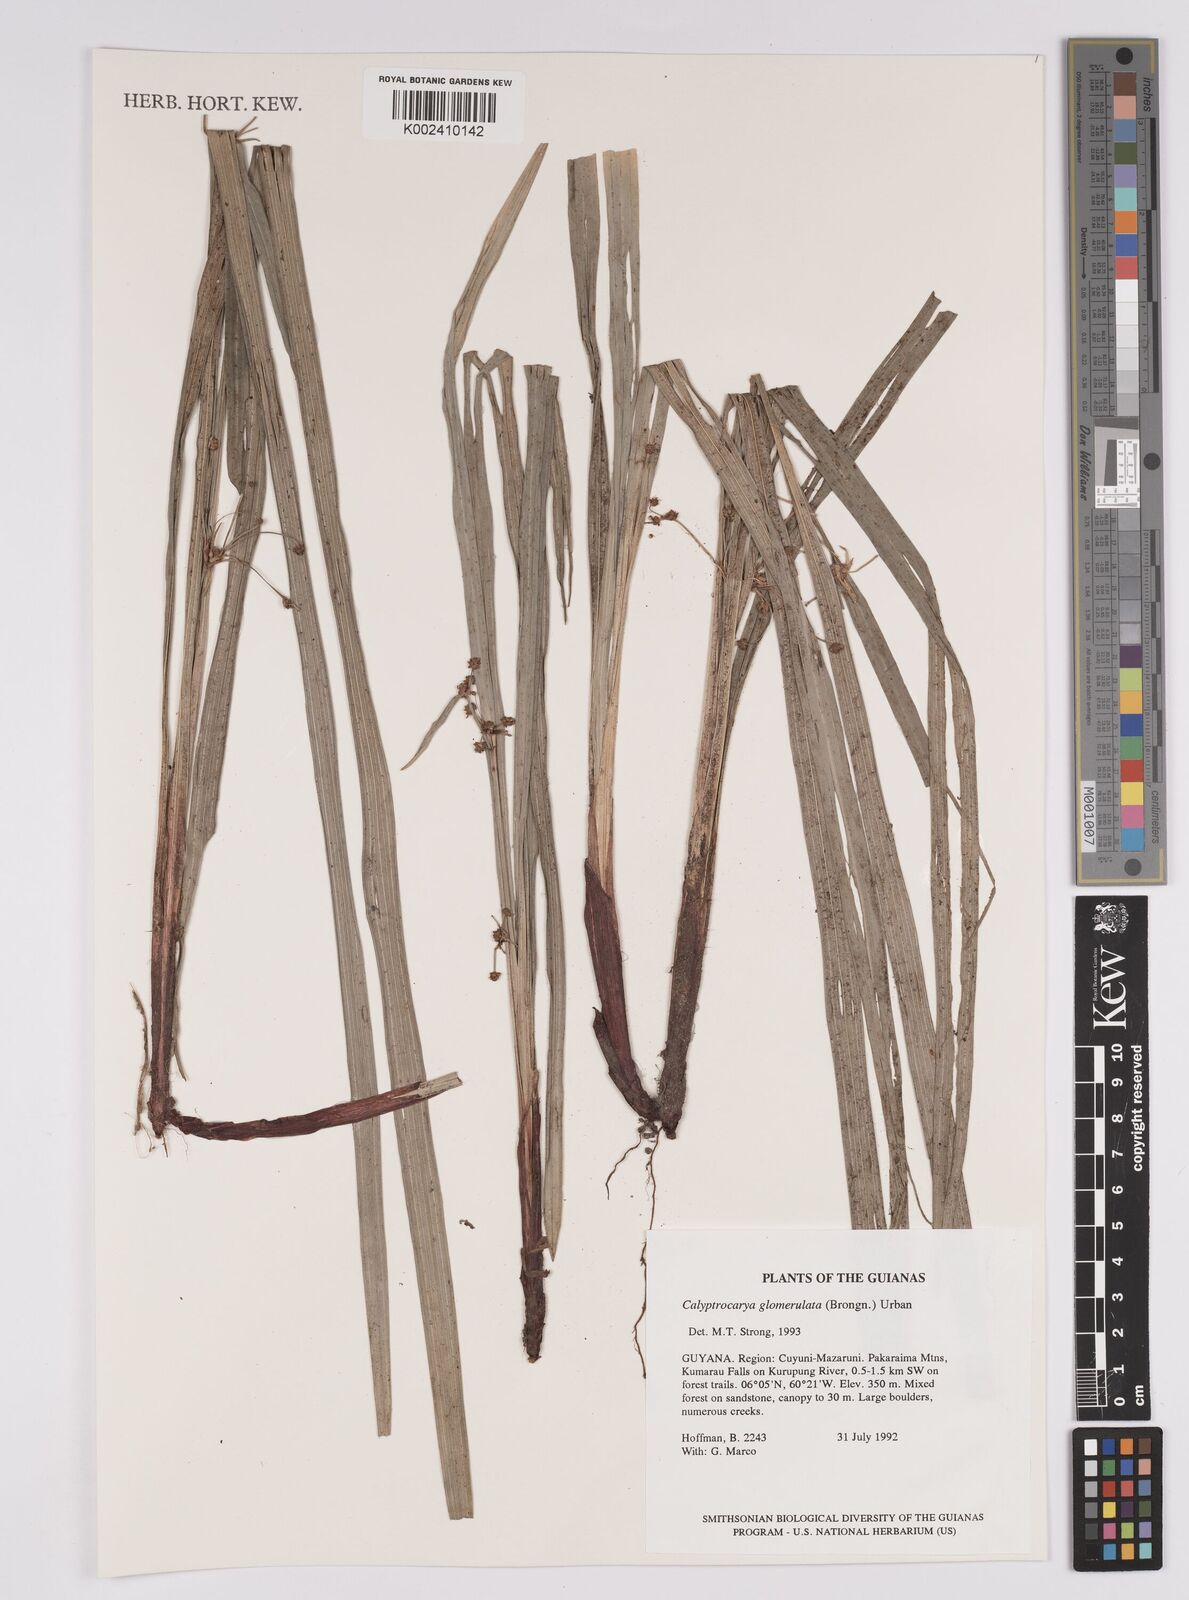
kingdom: Plantae
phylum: Tracheophyta
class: Liliopsida
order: Poales
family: Cyperaceae
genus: Calyptrocarya
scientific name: Calyptrocarya glomerulata
